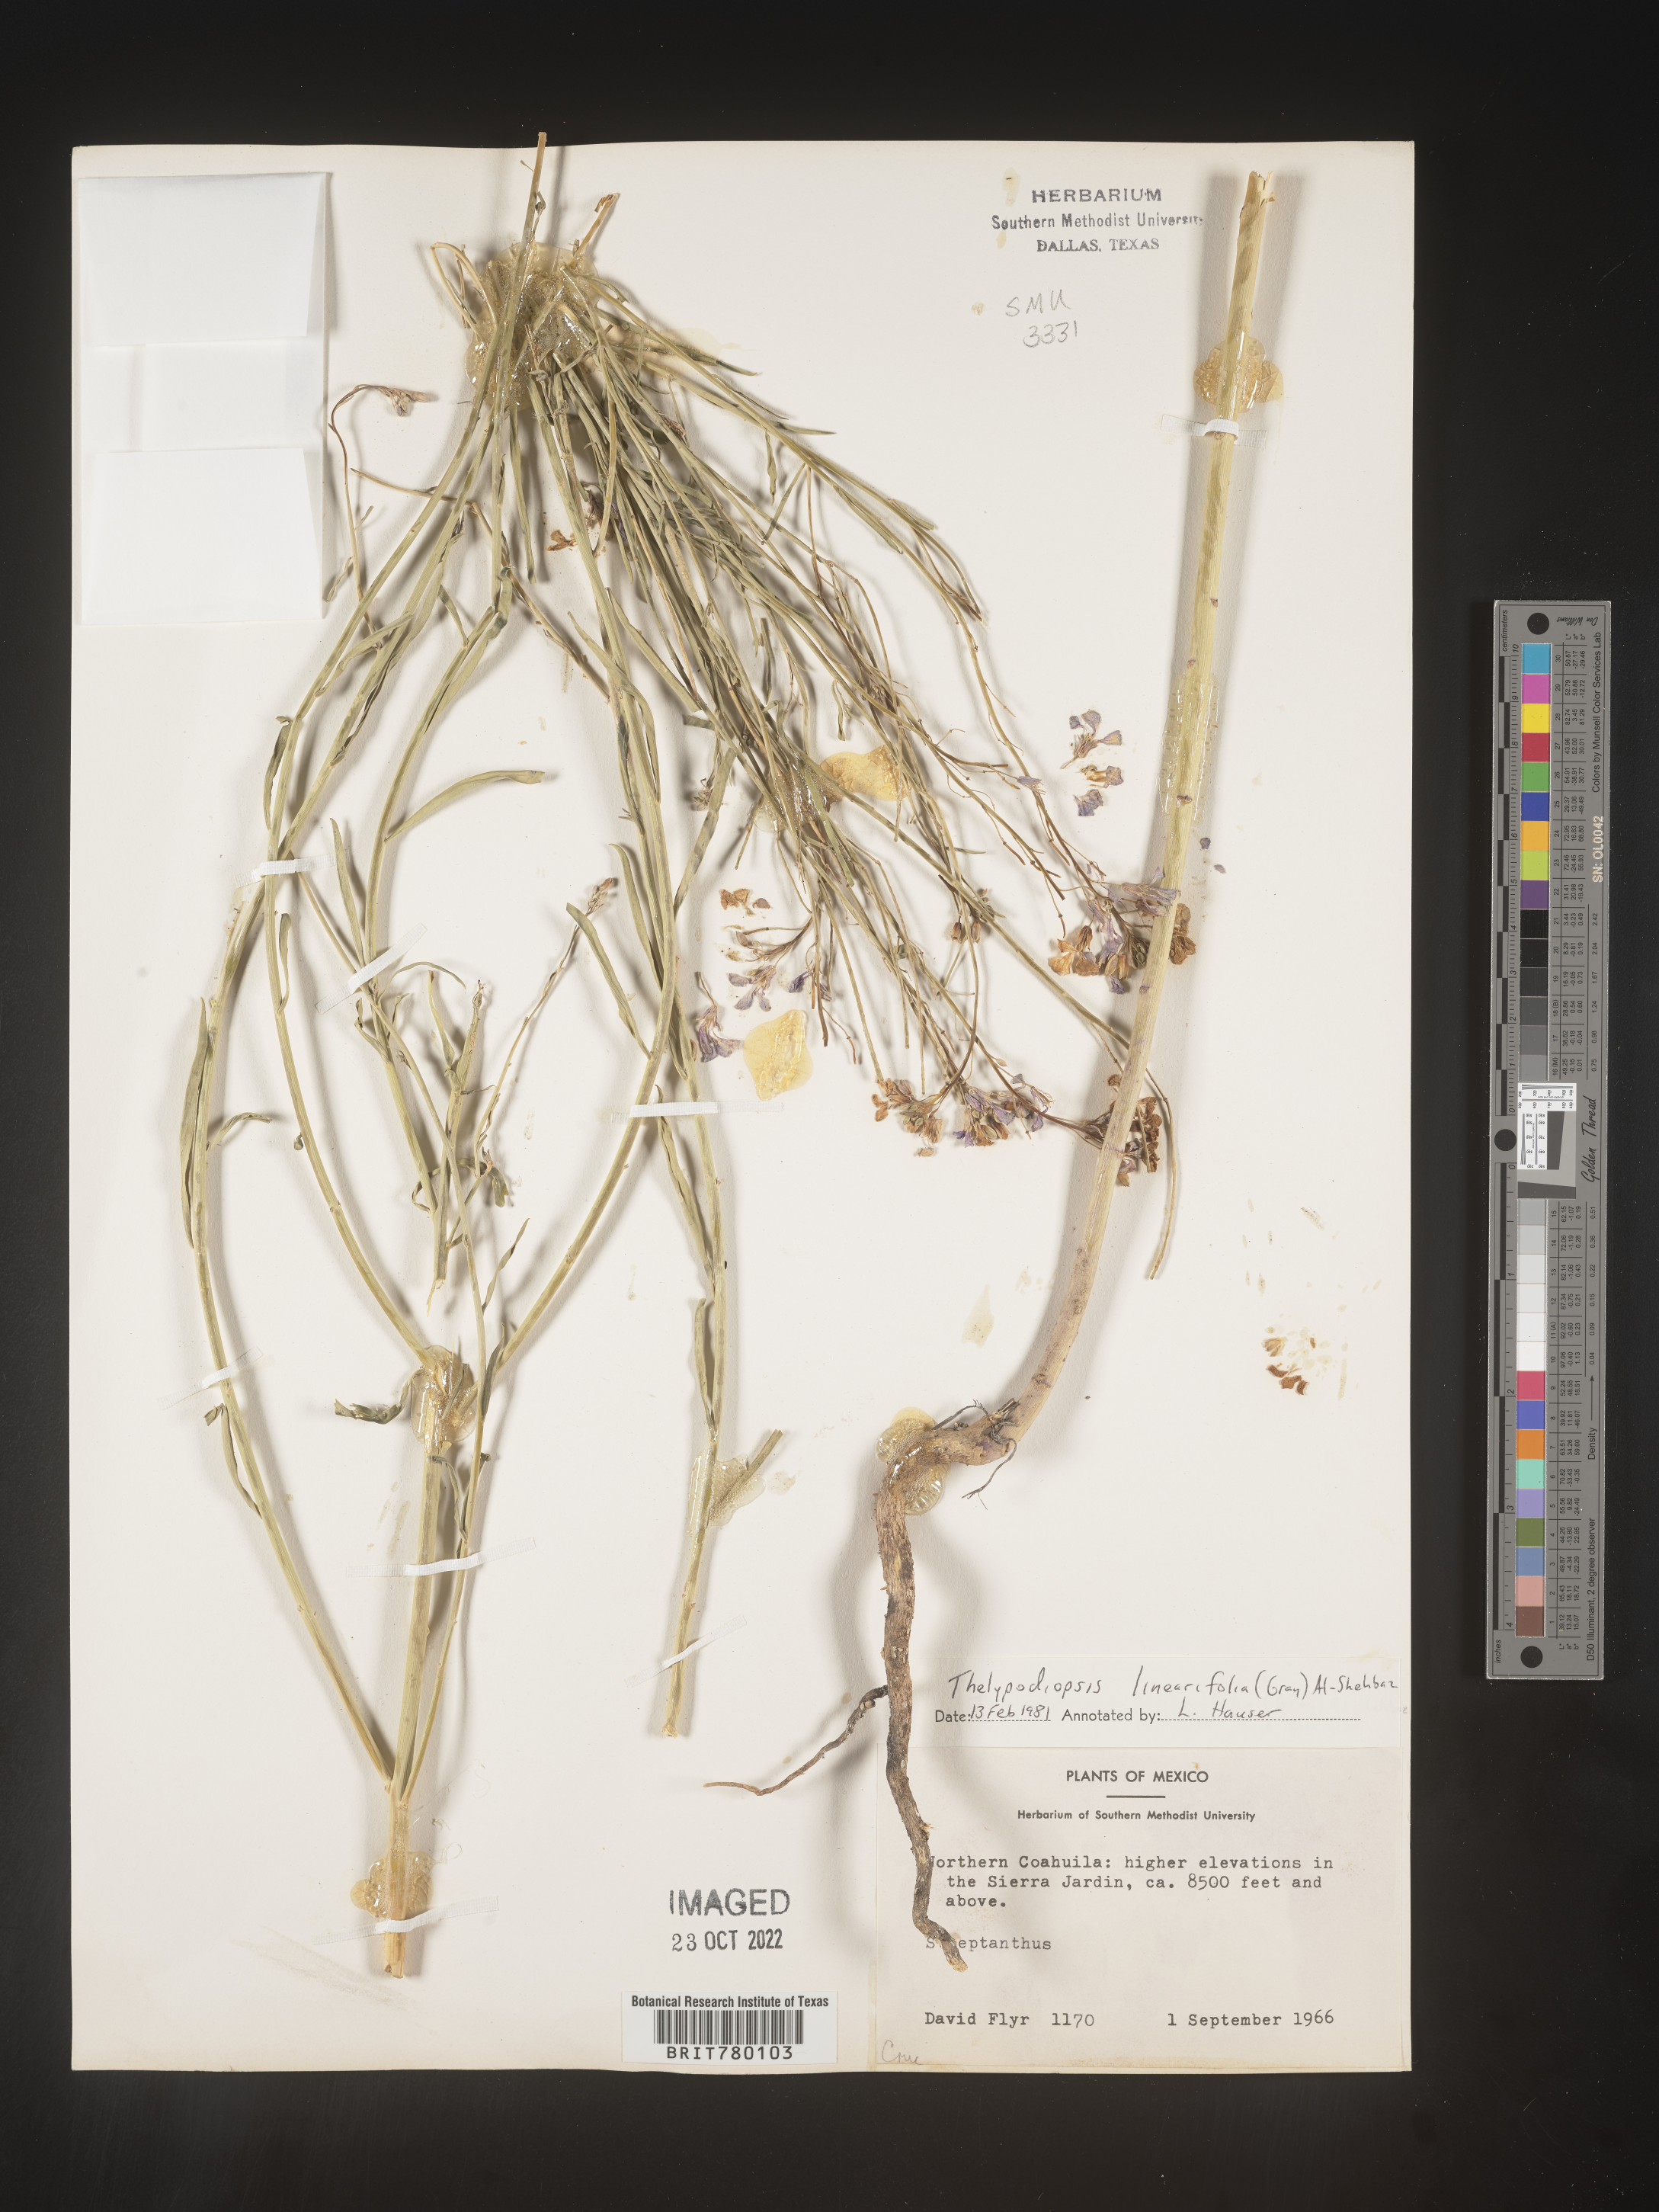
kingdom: Plantae
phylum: Tracheophyta
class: Magnoliopsida
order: Brassicales
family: Brassicaceae
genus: Thelypodium
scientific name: Thelypodium
